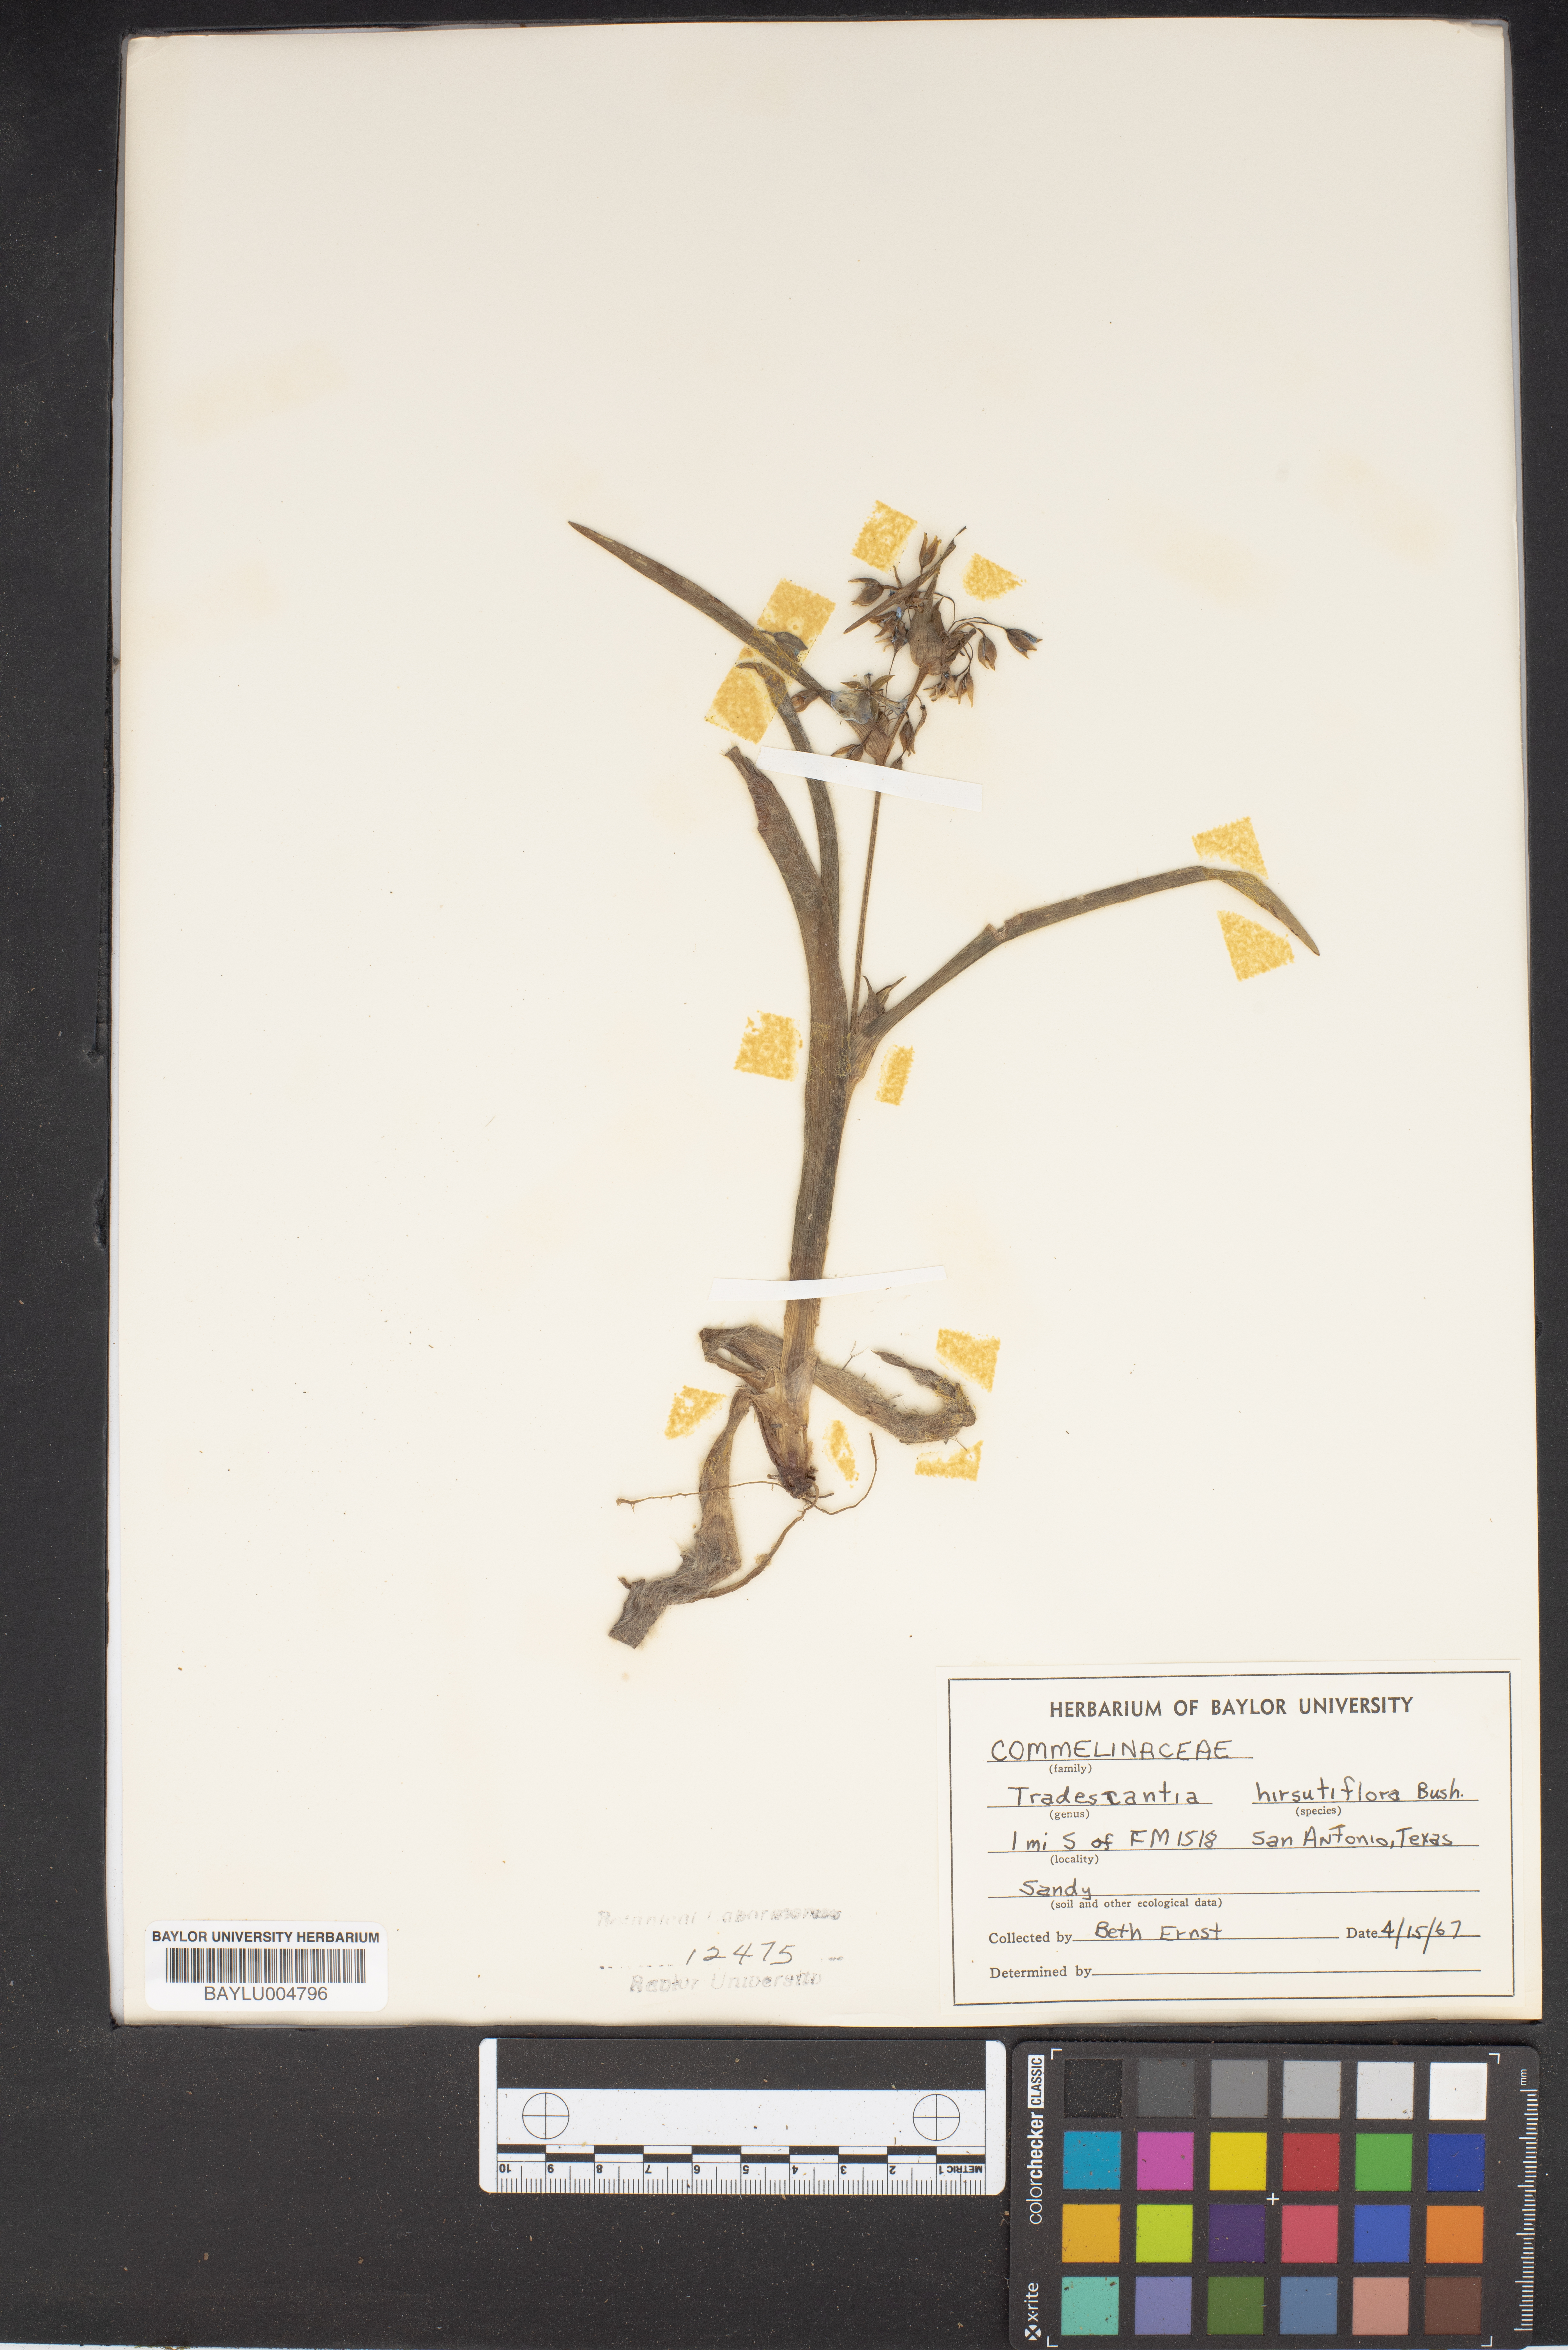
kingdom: Plantae
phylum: Tracheophyta
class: Liliopsida
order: Commelinales
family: Commelinaceae
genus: Tradescantia
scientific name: Tradescantia hirsutiflora
